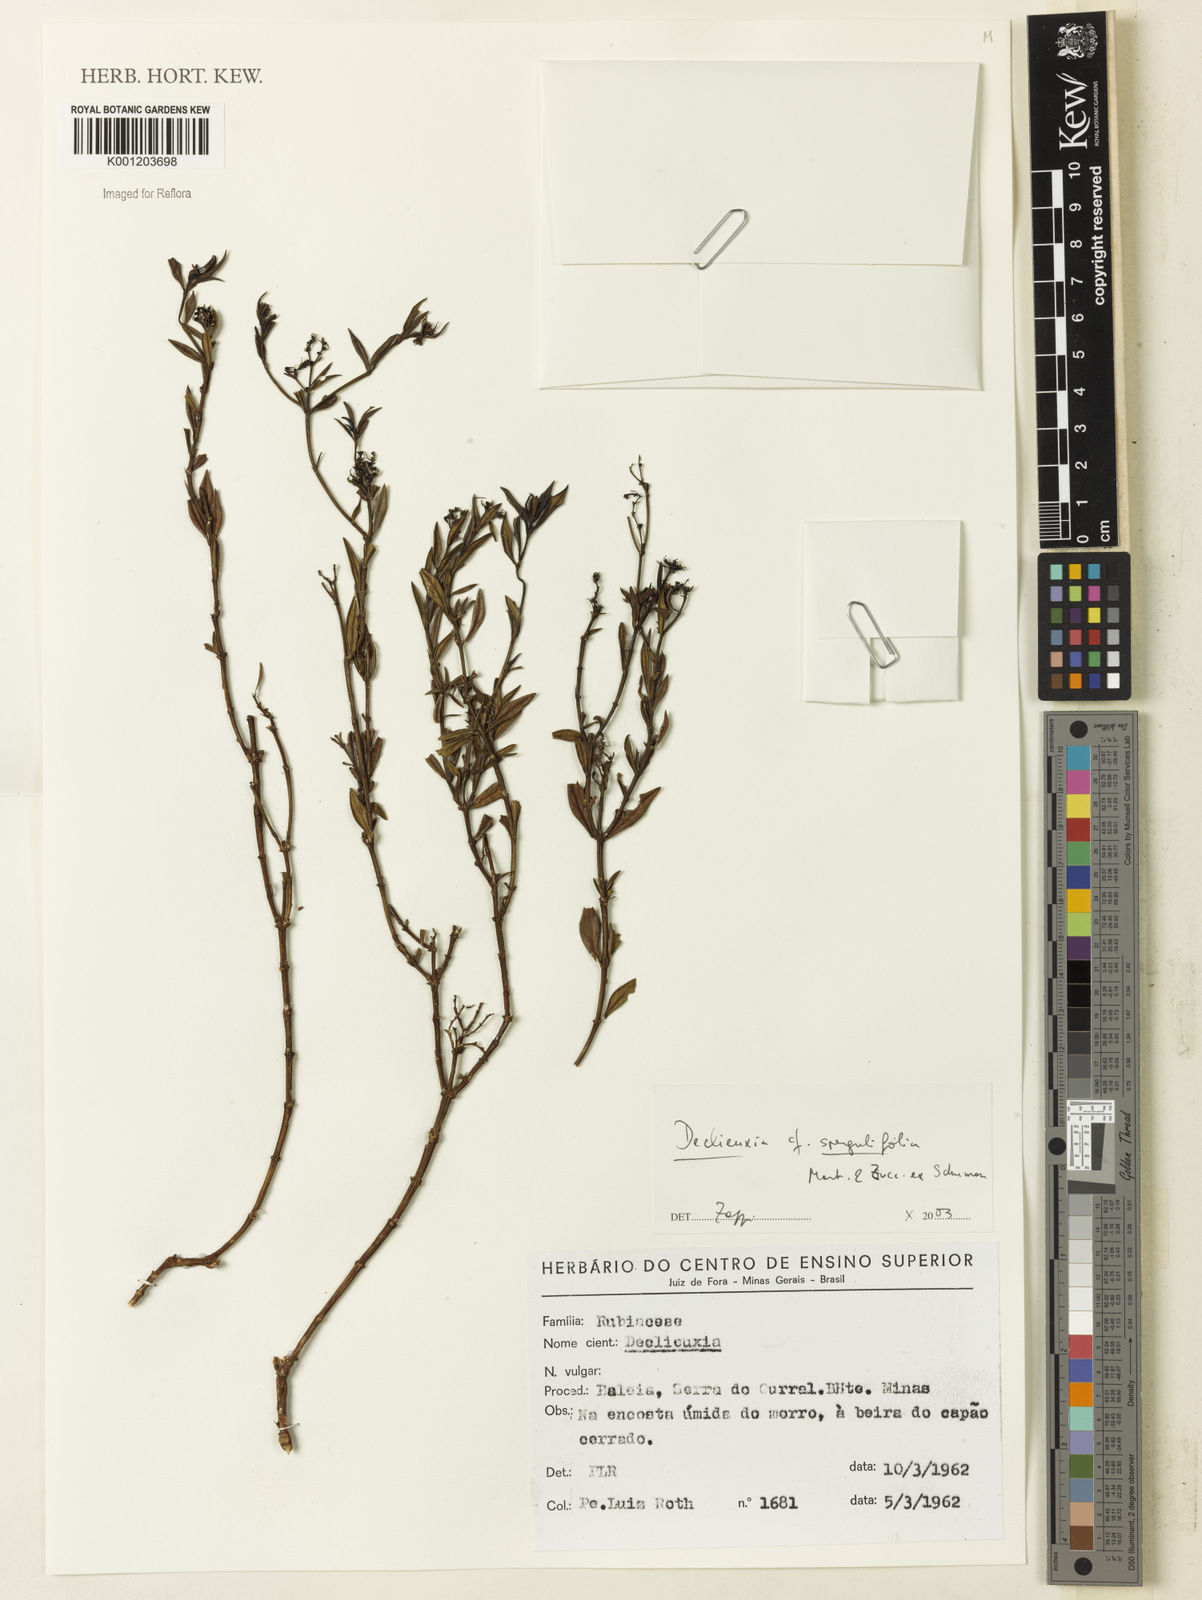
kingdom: Plantae
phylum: Tracheophyta
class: Magnoliopsida
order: Gentianales
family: Rubiaceae
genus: Declieuxia
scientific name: Declieuxia
